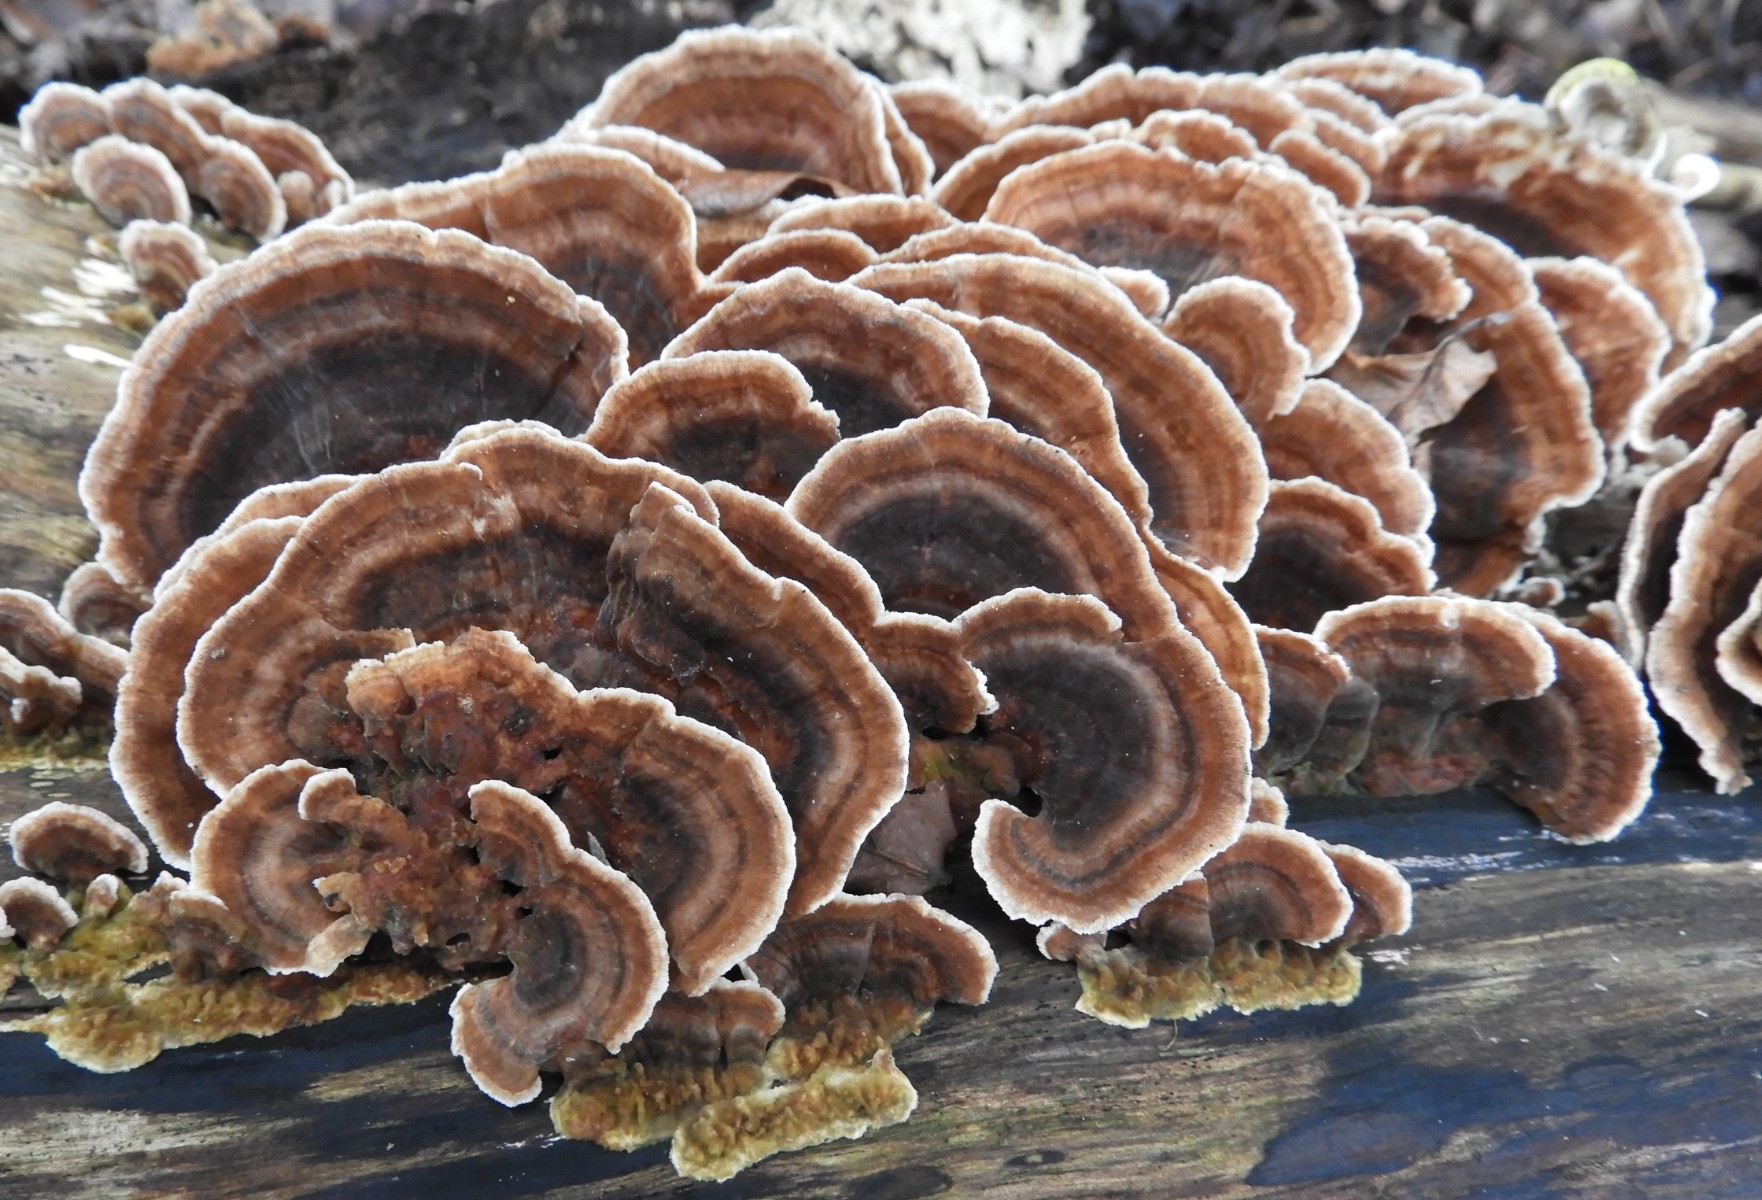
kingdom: Fungi
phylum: Basidiomycota
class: Agaricomycetes
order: Polyporales
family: Polyporaceae
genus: Trametes
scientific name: Trametes versicolor
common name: broget læderporesvamp
